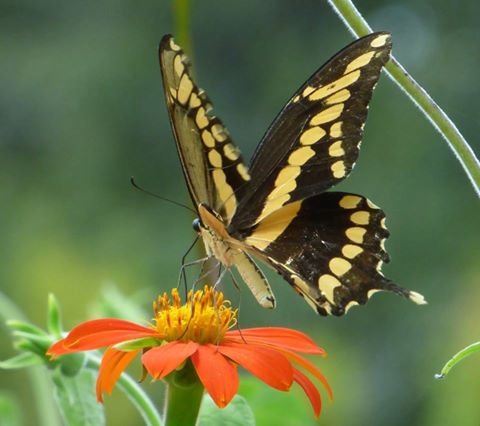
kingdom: Animalia
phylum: Arthropoda
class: Insecta
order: Lepidoptera
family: Papilionidae
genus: Papilio
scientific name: Papilio cresphontes
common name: Eastern Giant Swallowtail
